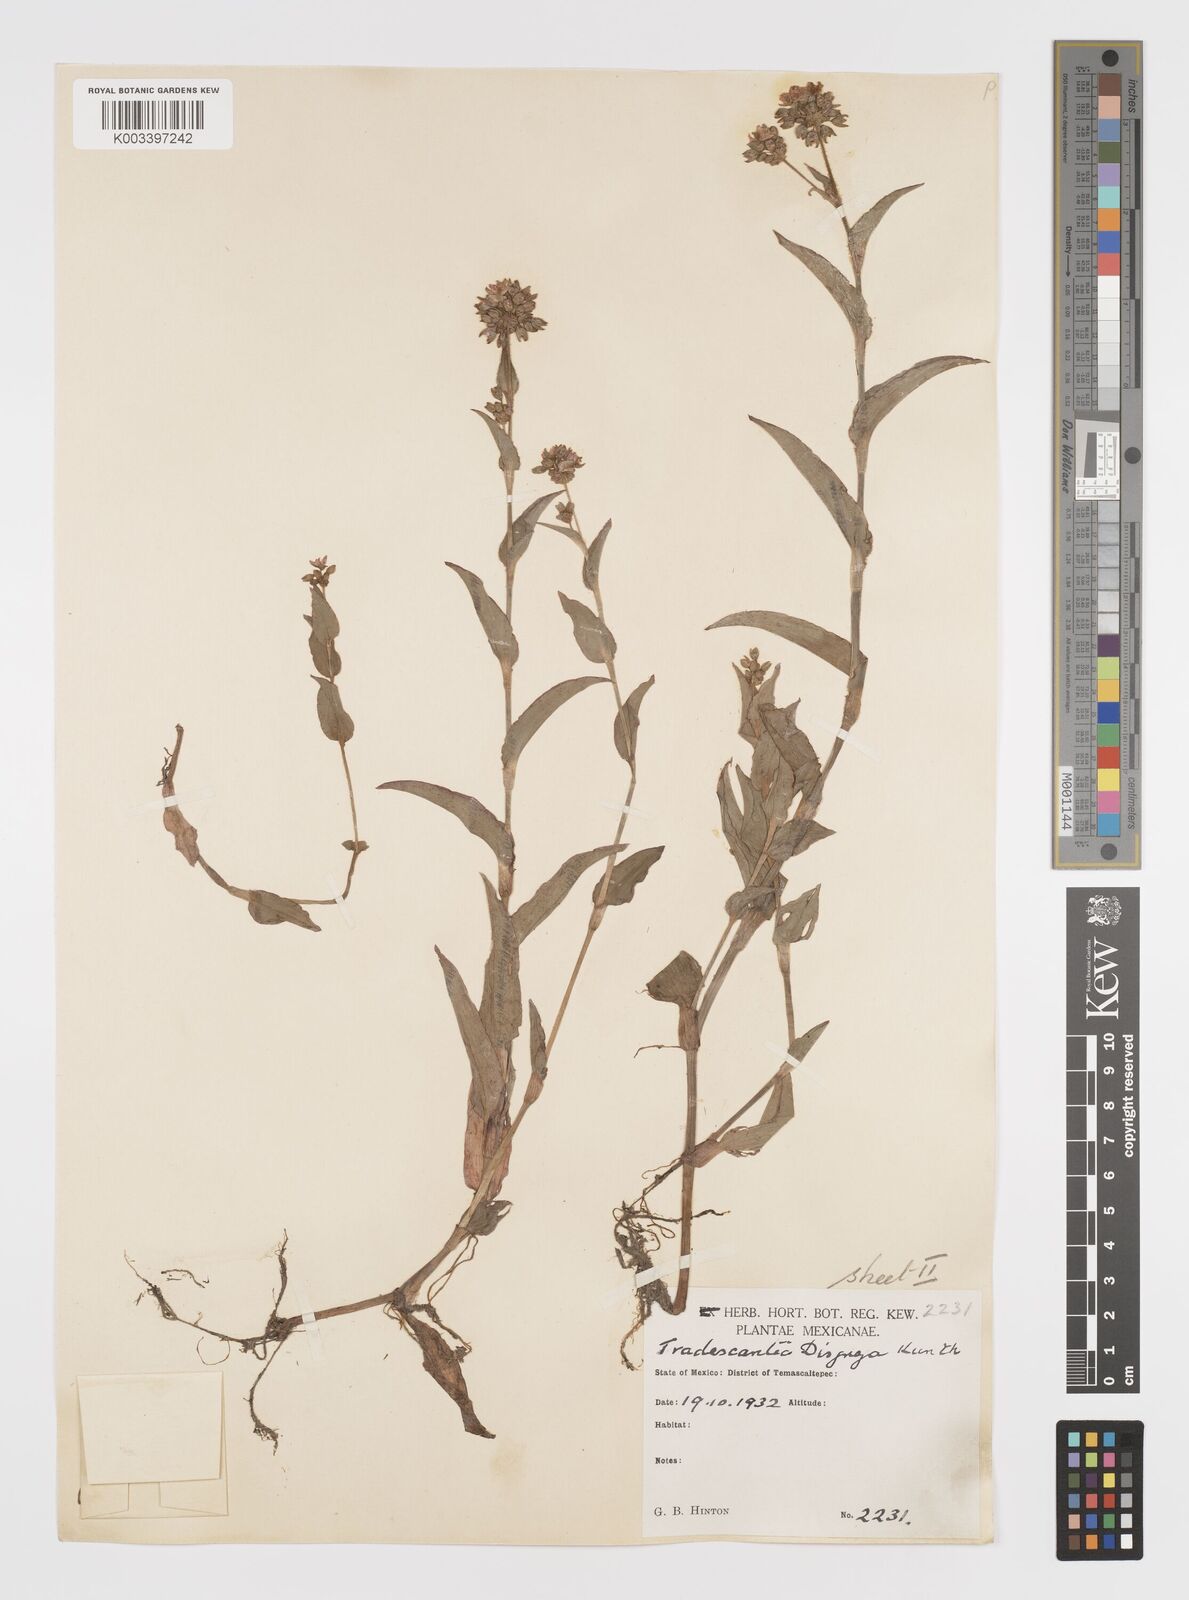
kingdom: Plantae
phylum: Tracheophyta
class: Liliopsida
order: Commelinales
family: Commelinaceae
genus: Callisia
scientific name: Callisia disgrega
